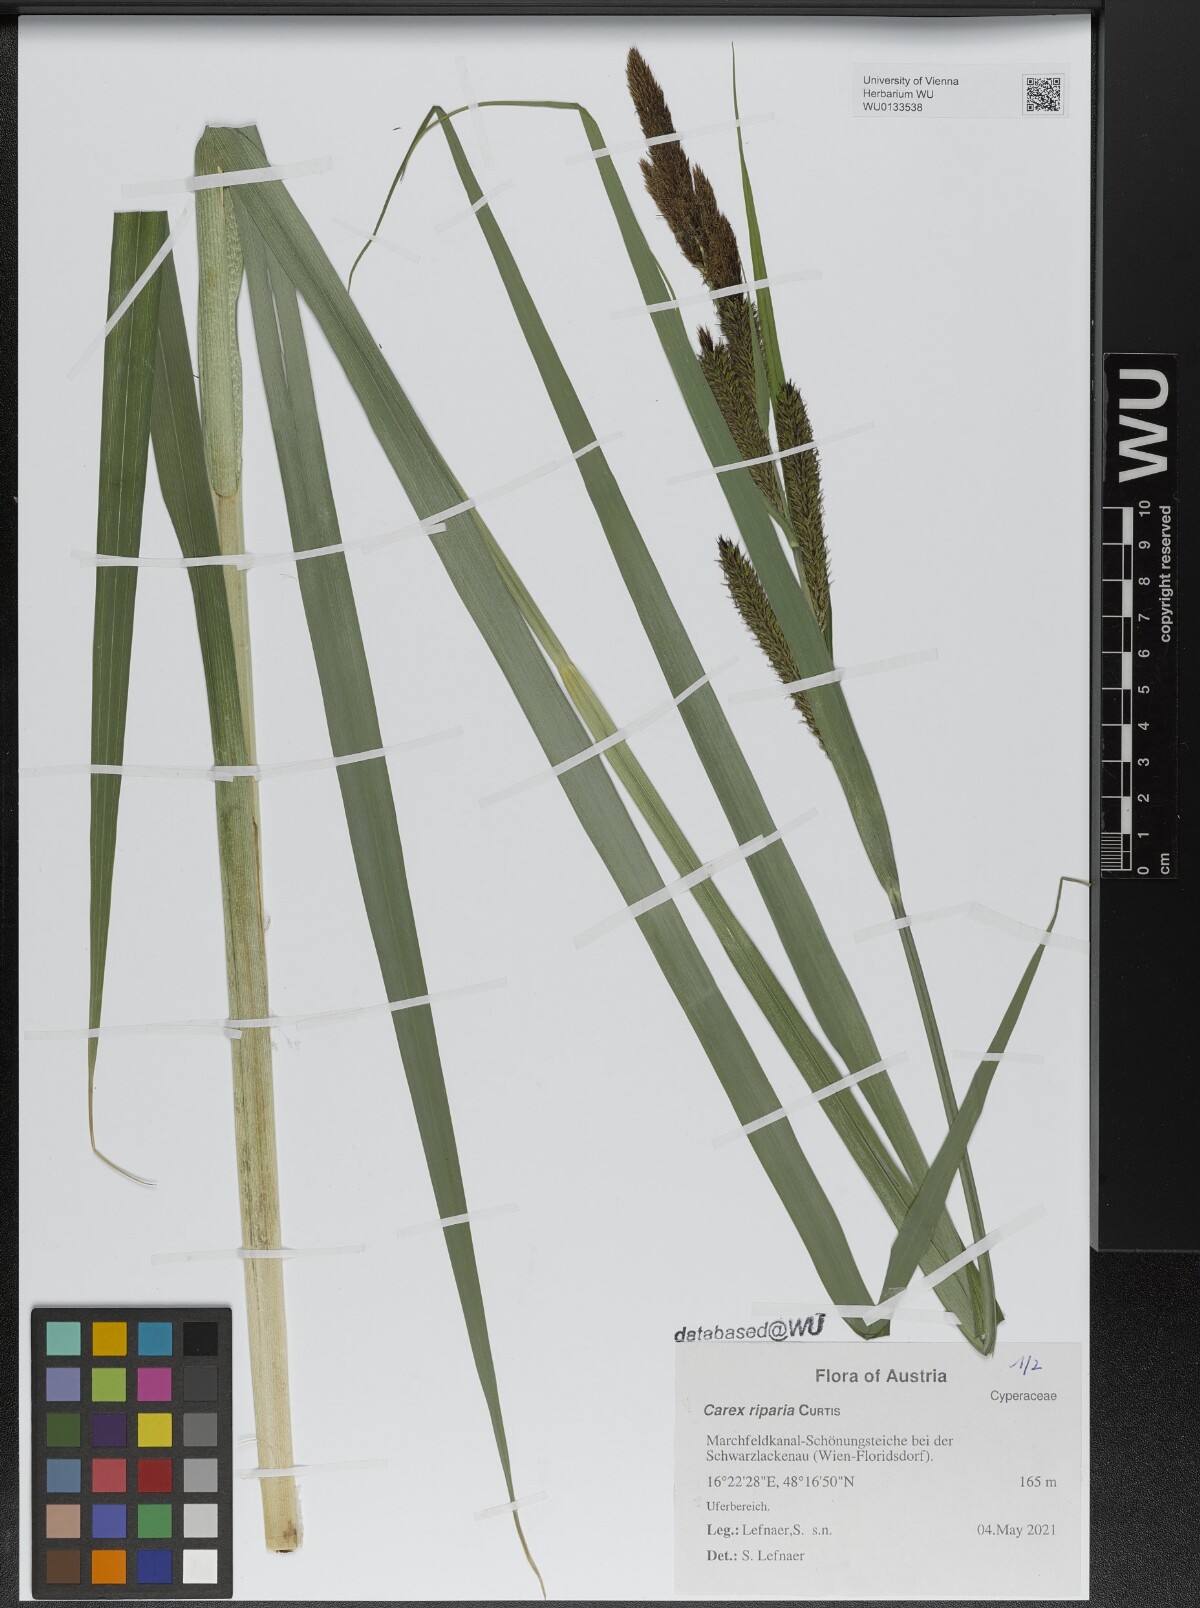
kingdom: Plantae
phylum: Tracheophyta
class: Liliopsida
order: Poales
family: Cyperaceae
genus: Carex
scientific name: Carex riparia
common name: Greater pond-sedge
